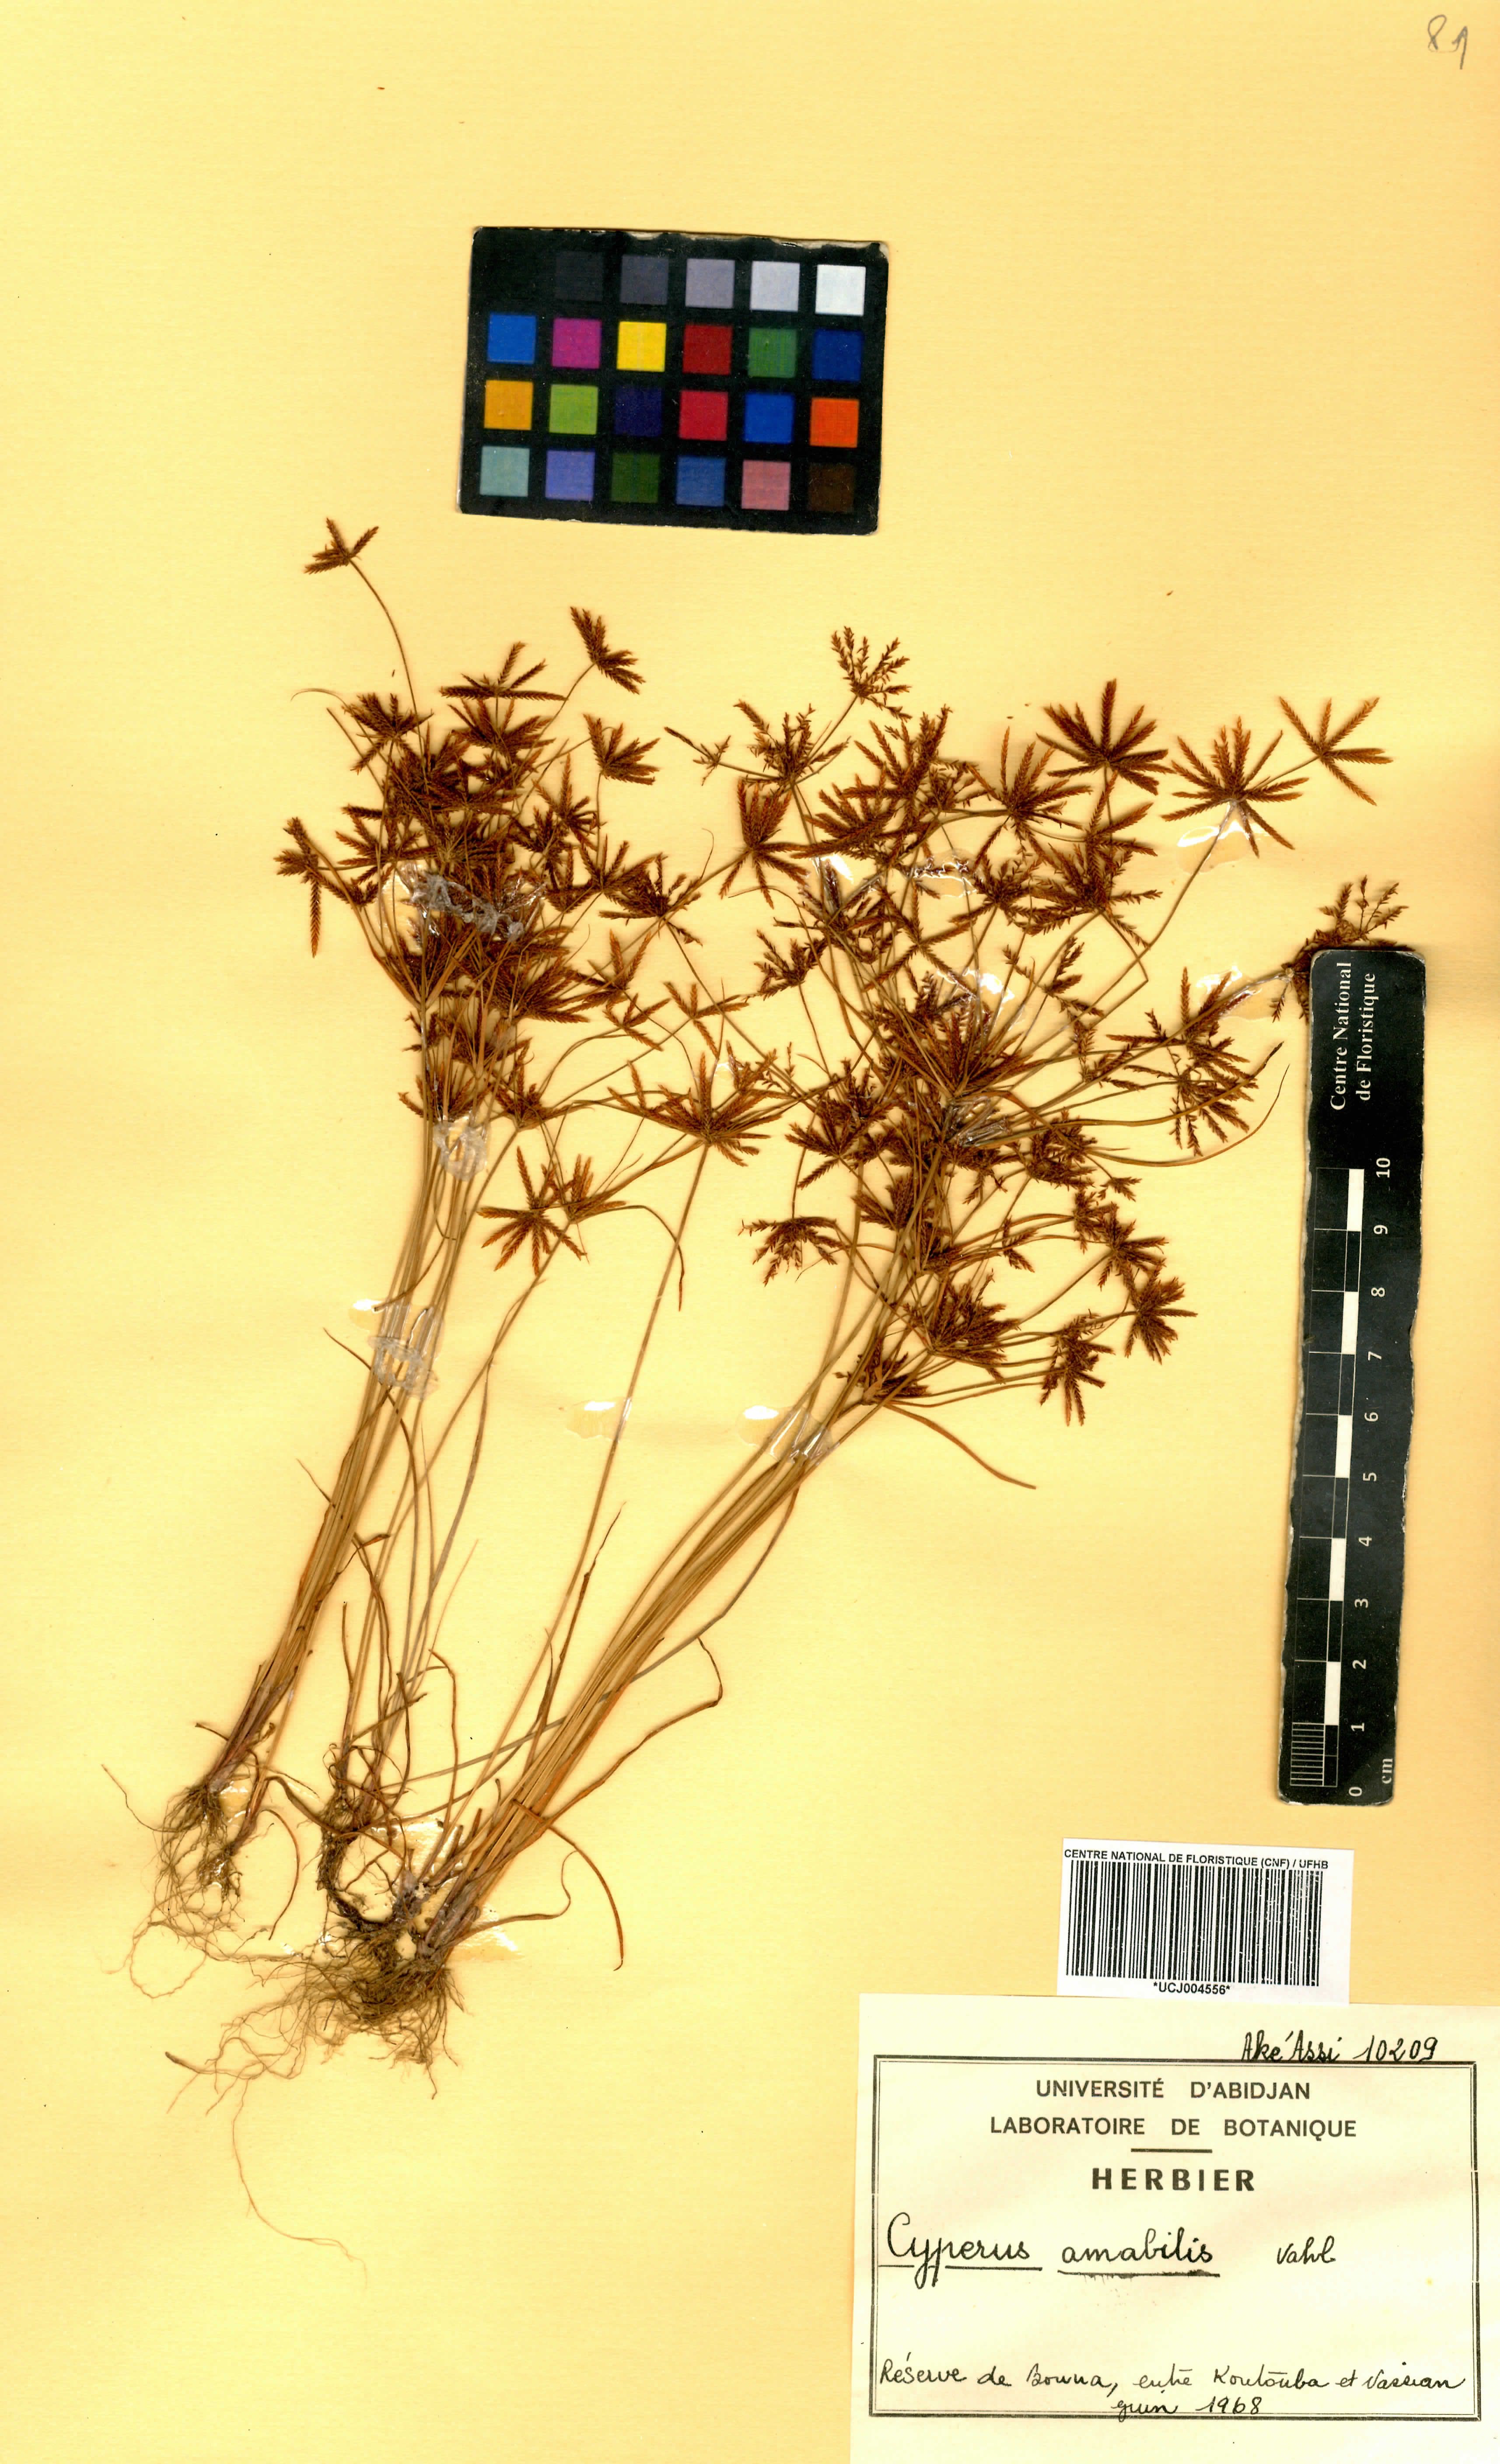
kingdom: Plantae
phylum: Tracheophyta
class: Liliopsida
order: Poales
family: Cyperaceae
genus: Cyperus
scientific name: Cyperus amabilis
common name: Foothill flat sedge
